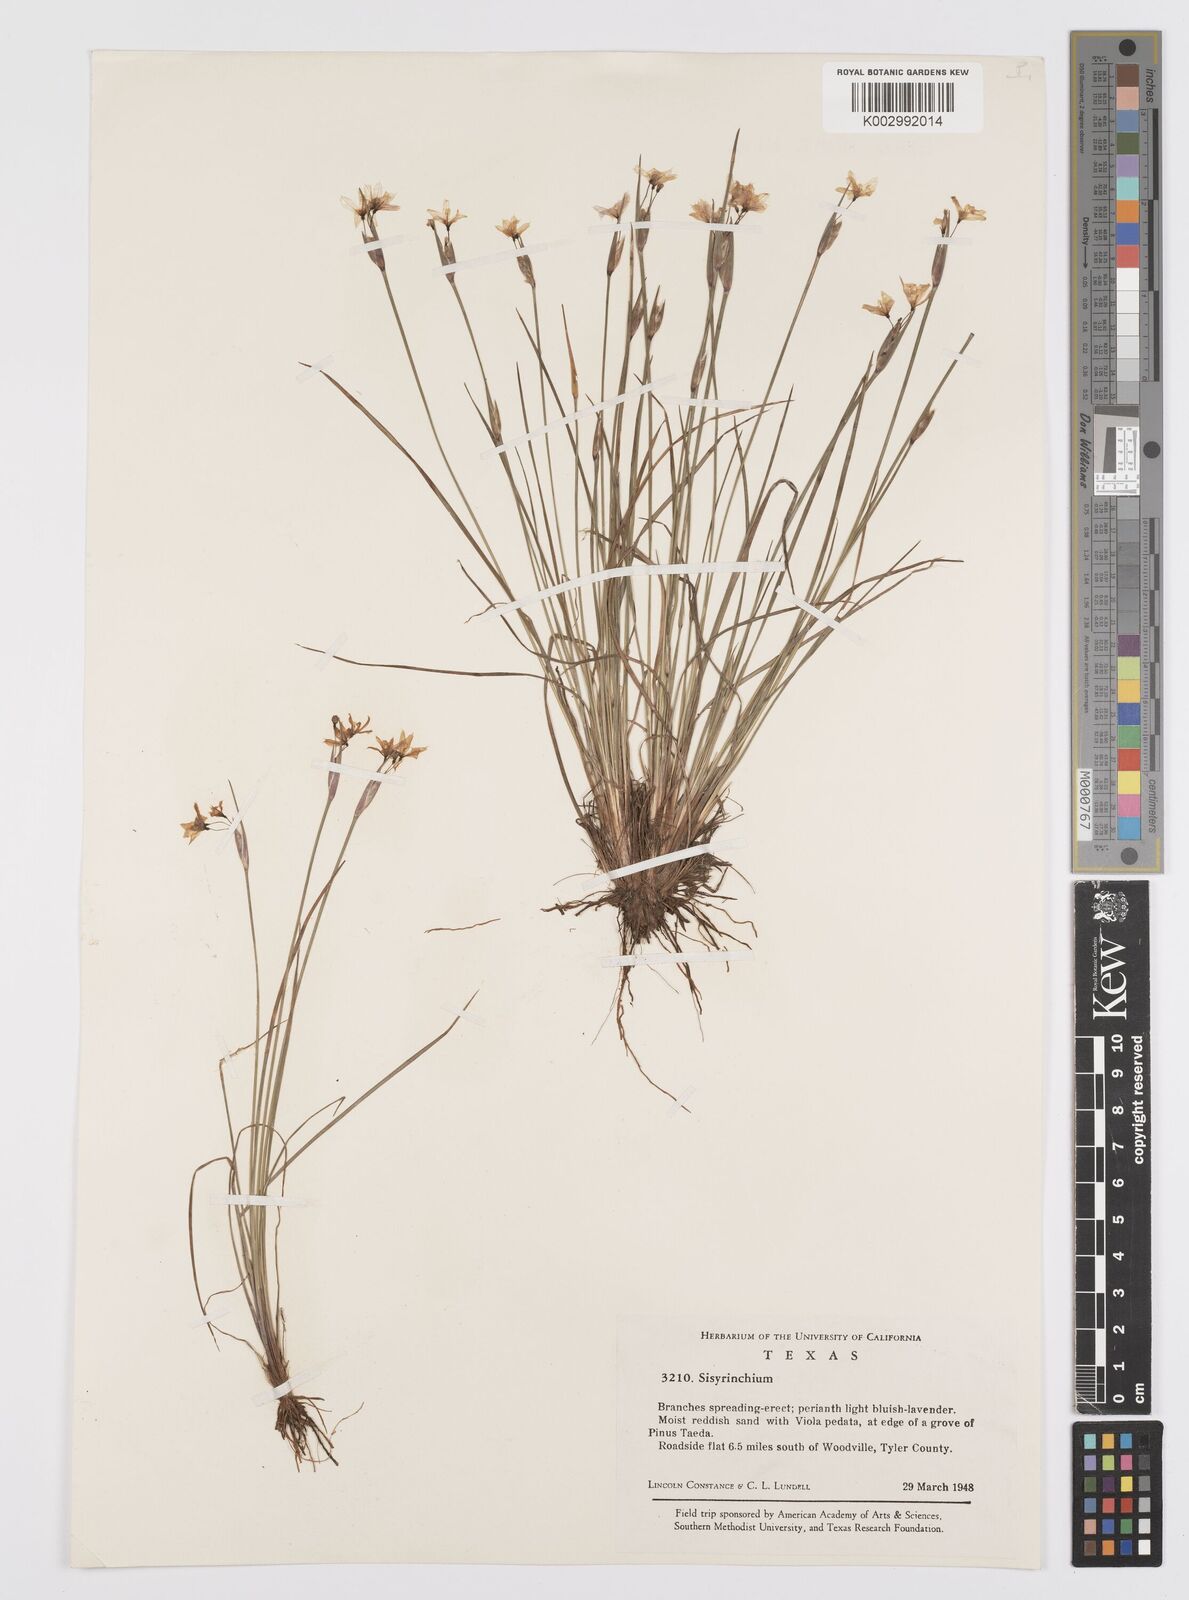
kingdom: Plantae
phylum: Tracheophyta
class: Liliopsida
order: Asparagales
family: Iridaceae
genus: Sisyrinchium
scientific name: Sisyrinchium
